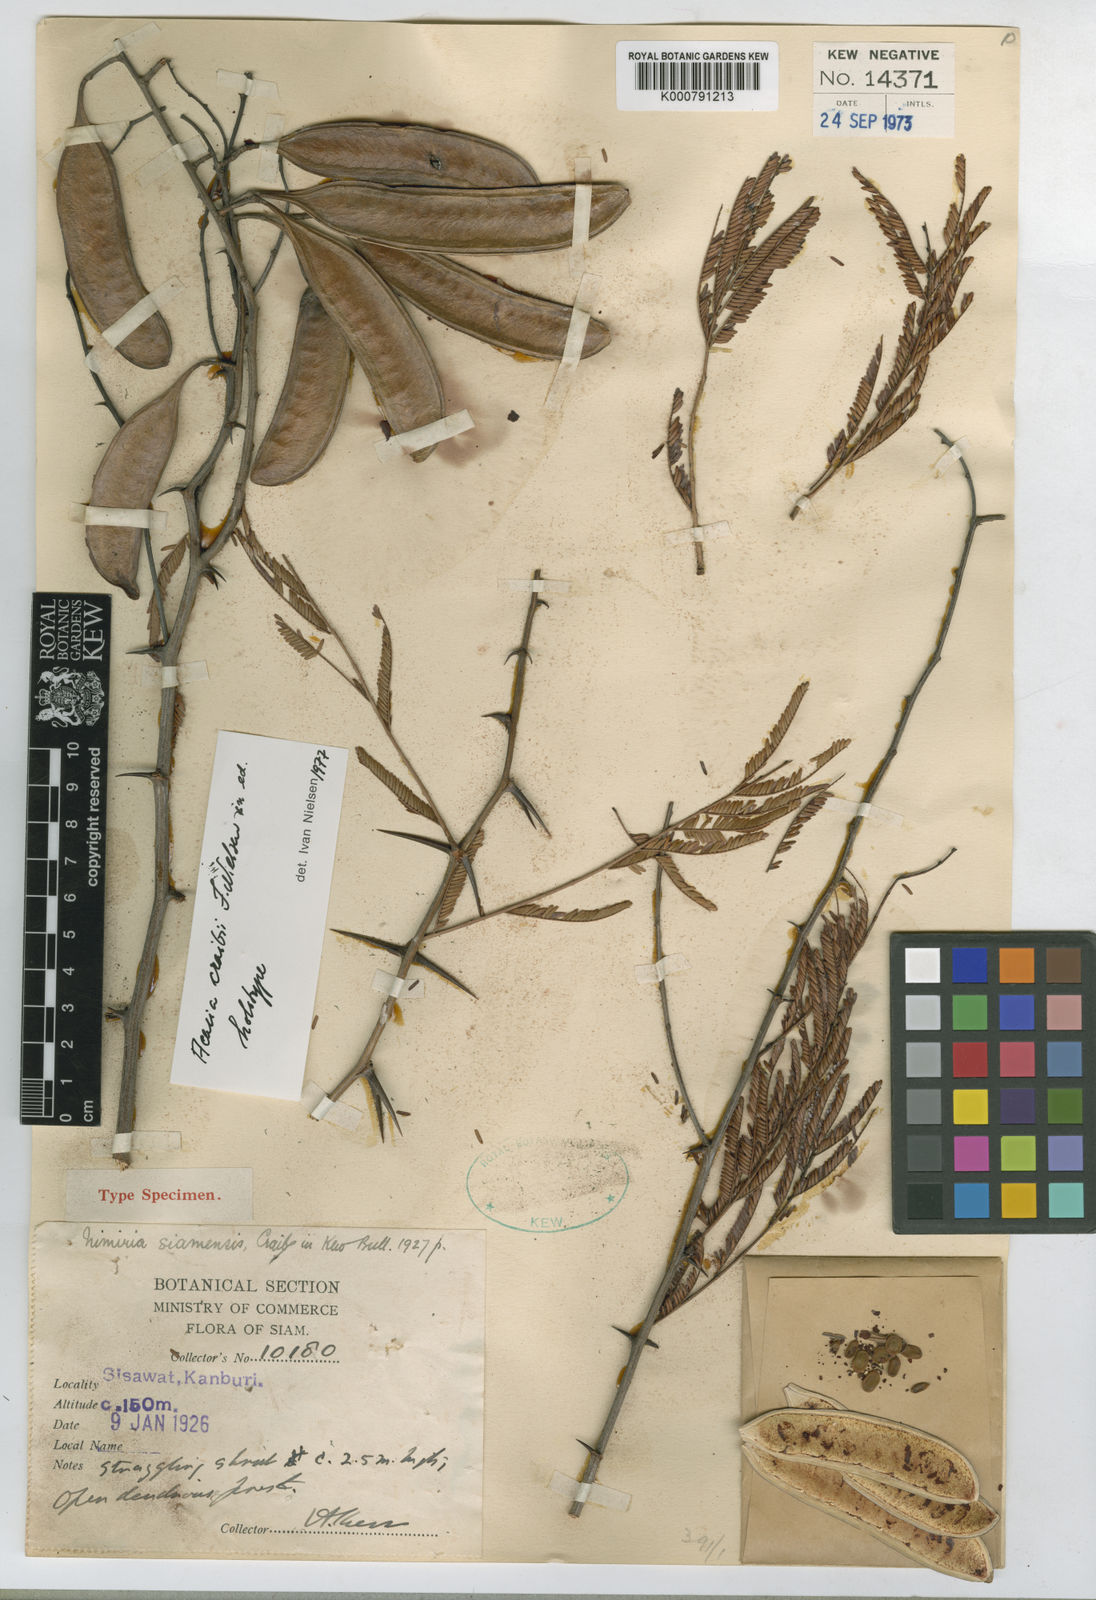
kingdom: Plantae
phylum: Tracheophyta
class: Magnoliopsida
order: Fabales
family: Fabaceae
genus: Vachellia
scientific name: Vachellia siamensis
